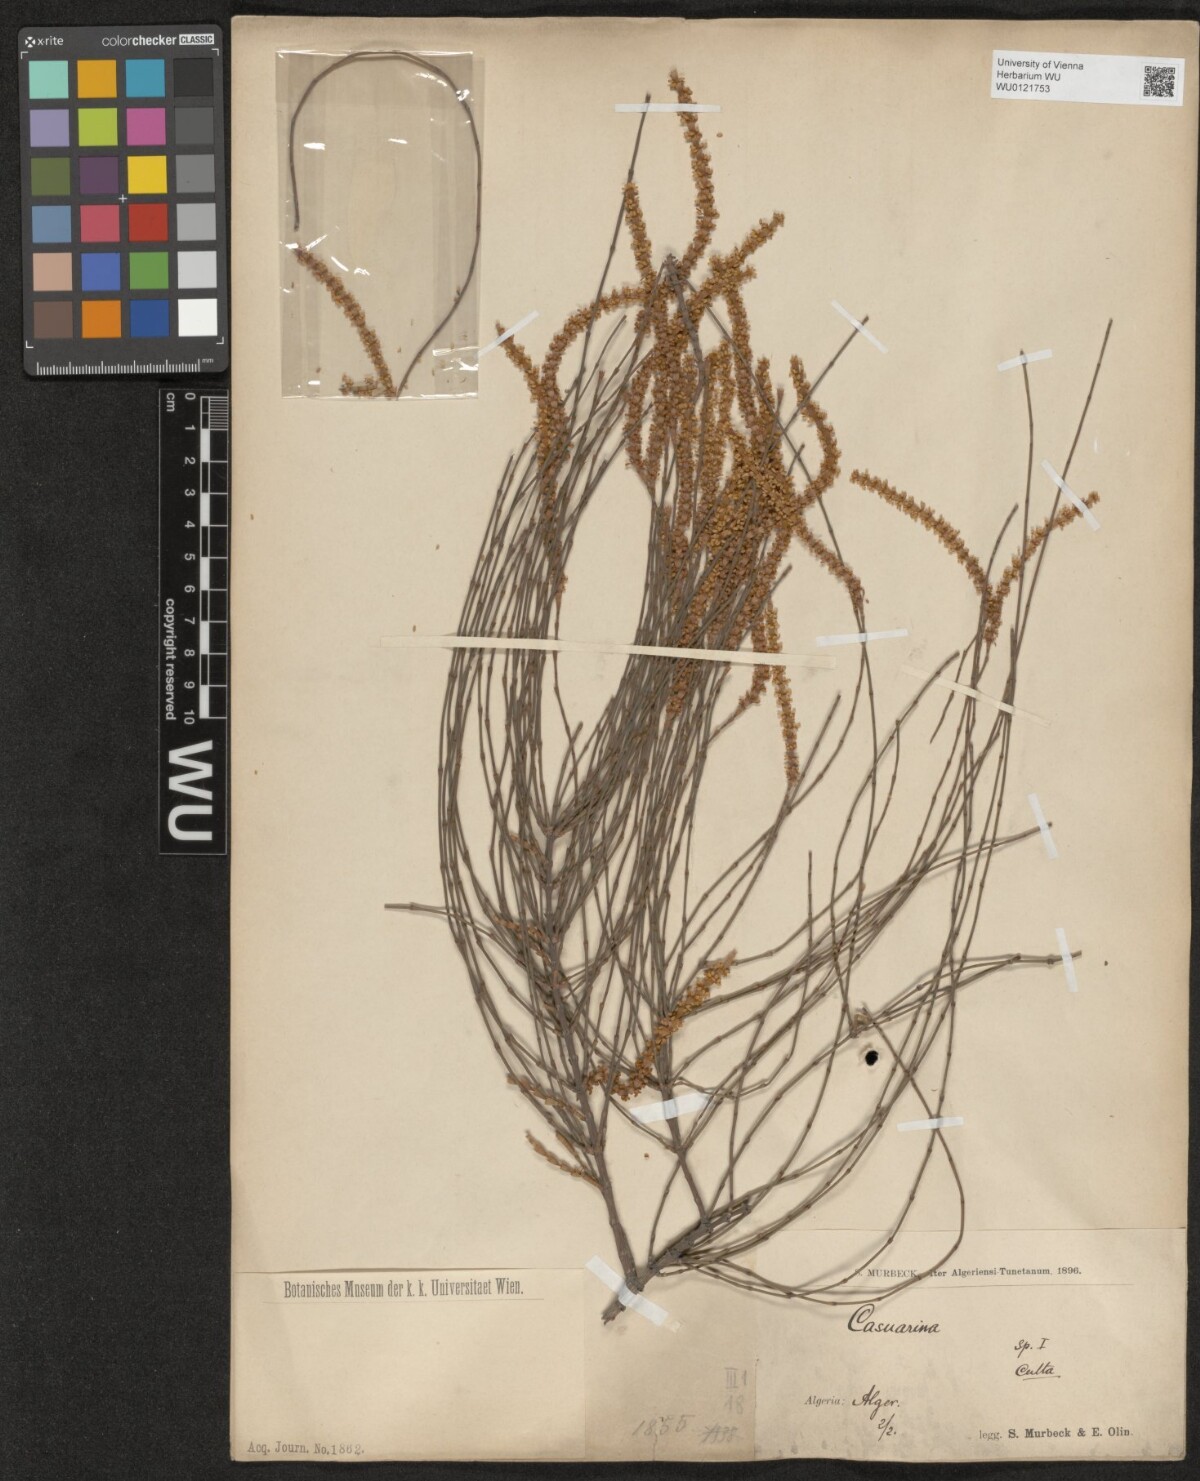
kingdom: Plantae
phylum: Tracheophyta
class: Magnoliopsida
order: Fagales
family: Casuarinaceae
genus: Casuarina
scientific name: Casuarina
